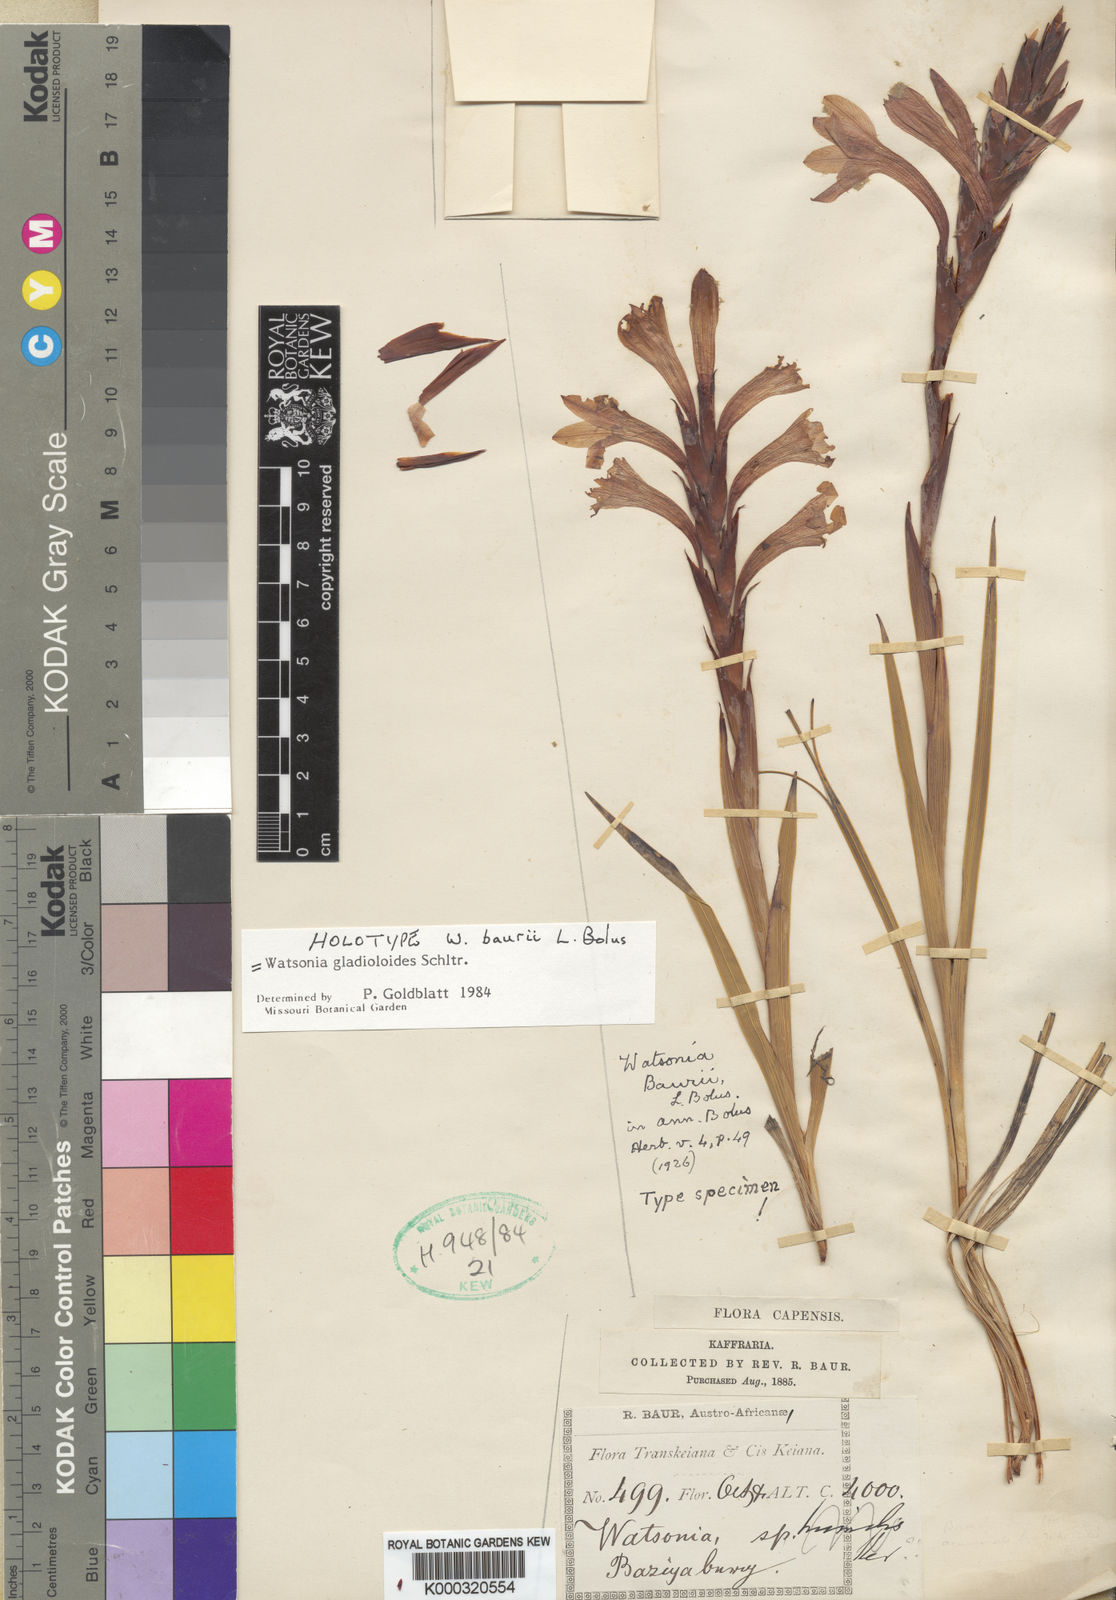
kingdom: Plantae
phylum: Tracheophyta
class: Liliopsida
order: Asparagales
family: Iridaceae
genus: Watsonia
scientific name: Watsonia gladioloides
